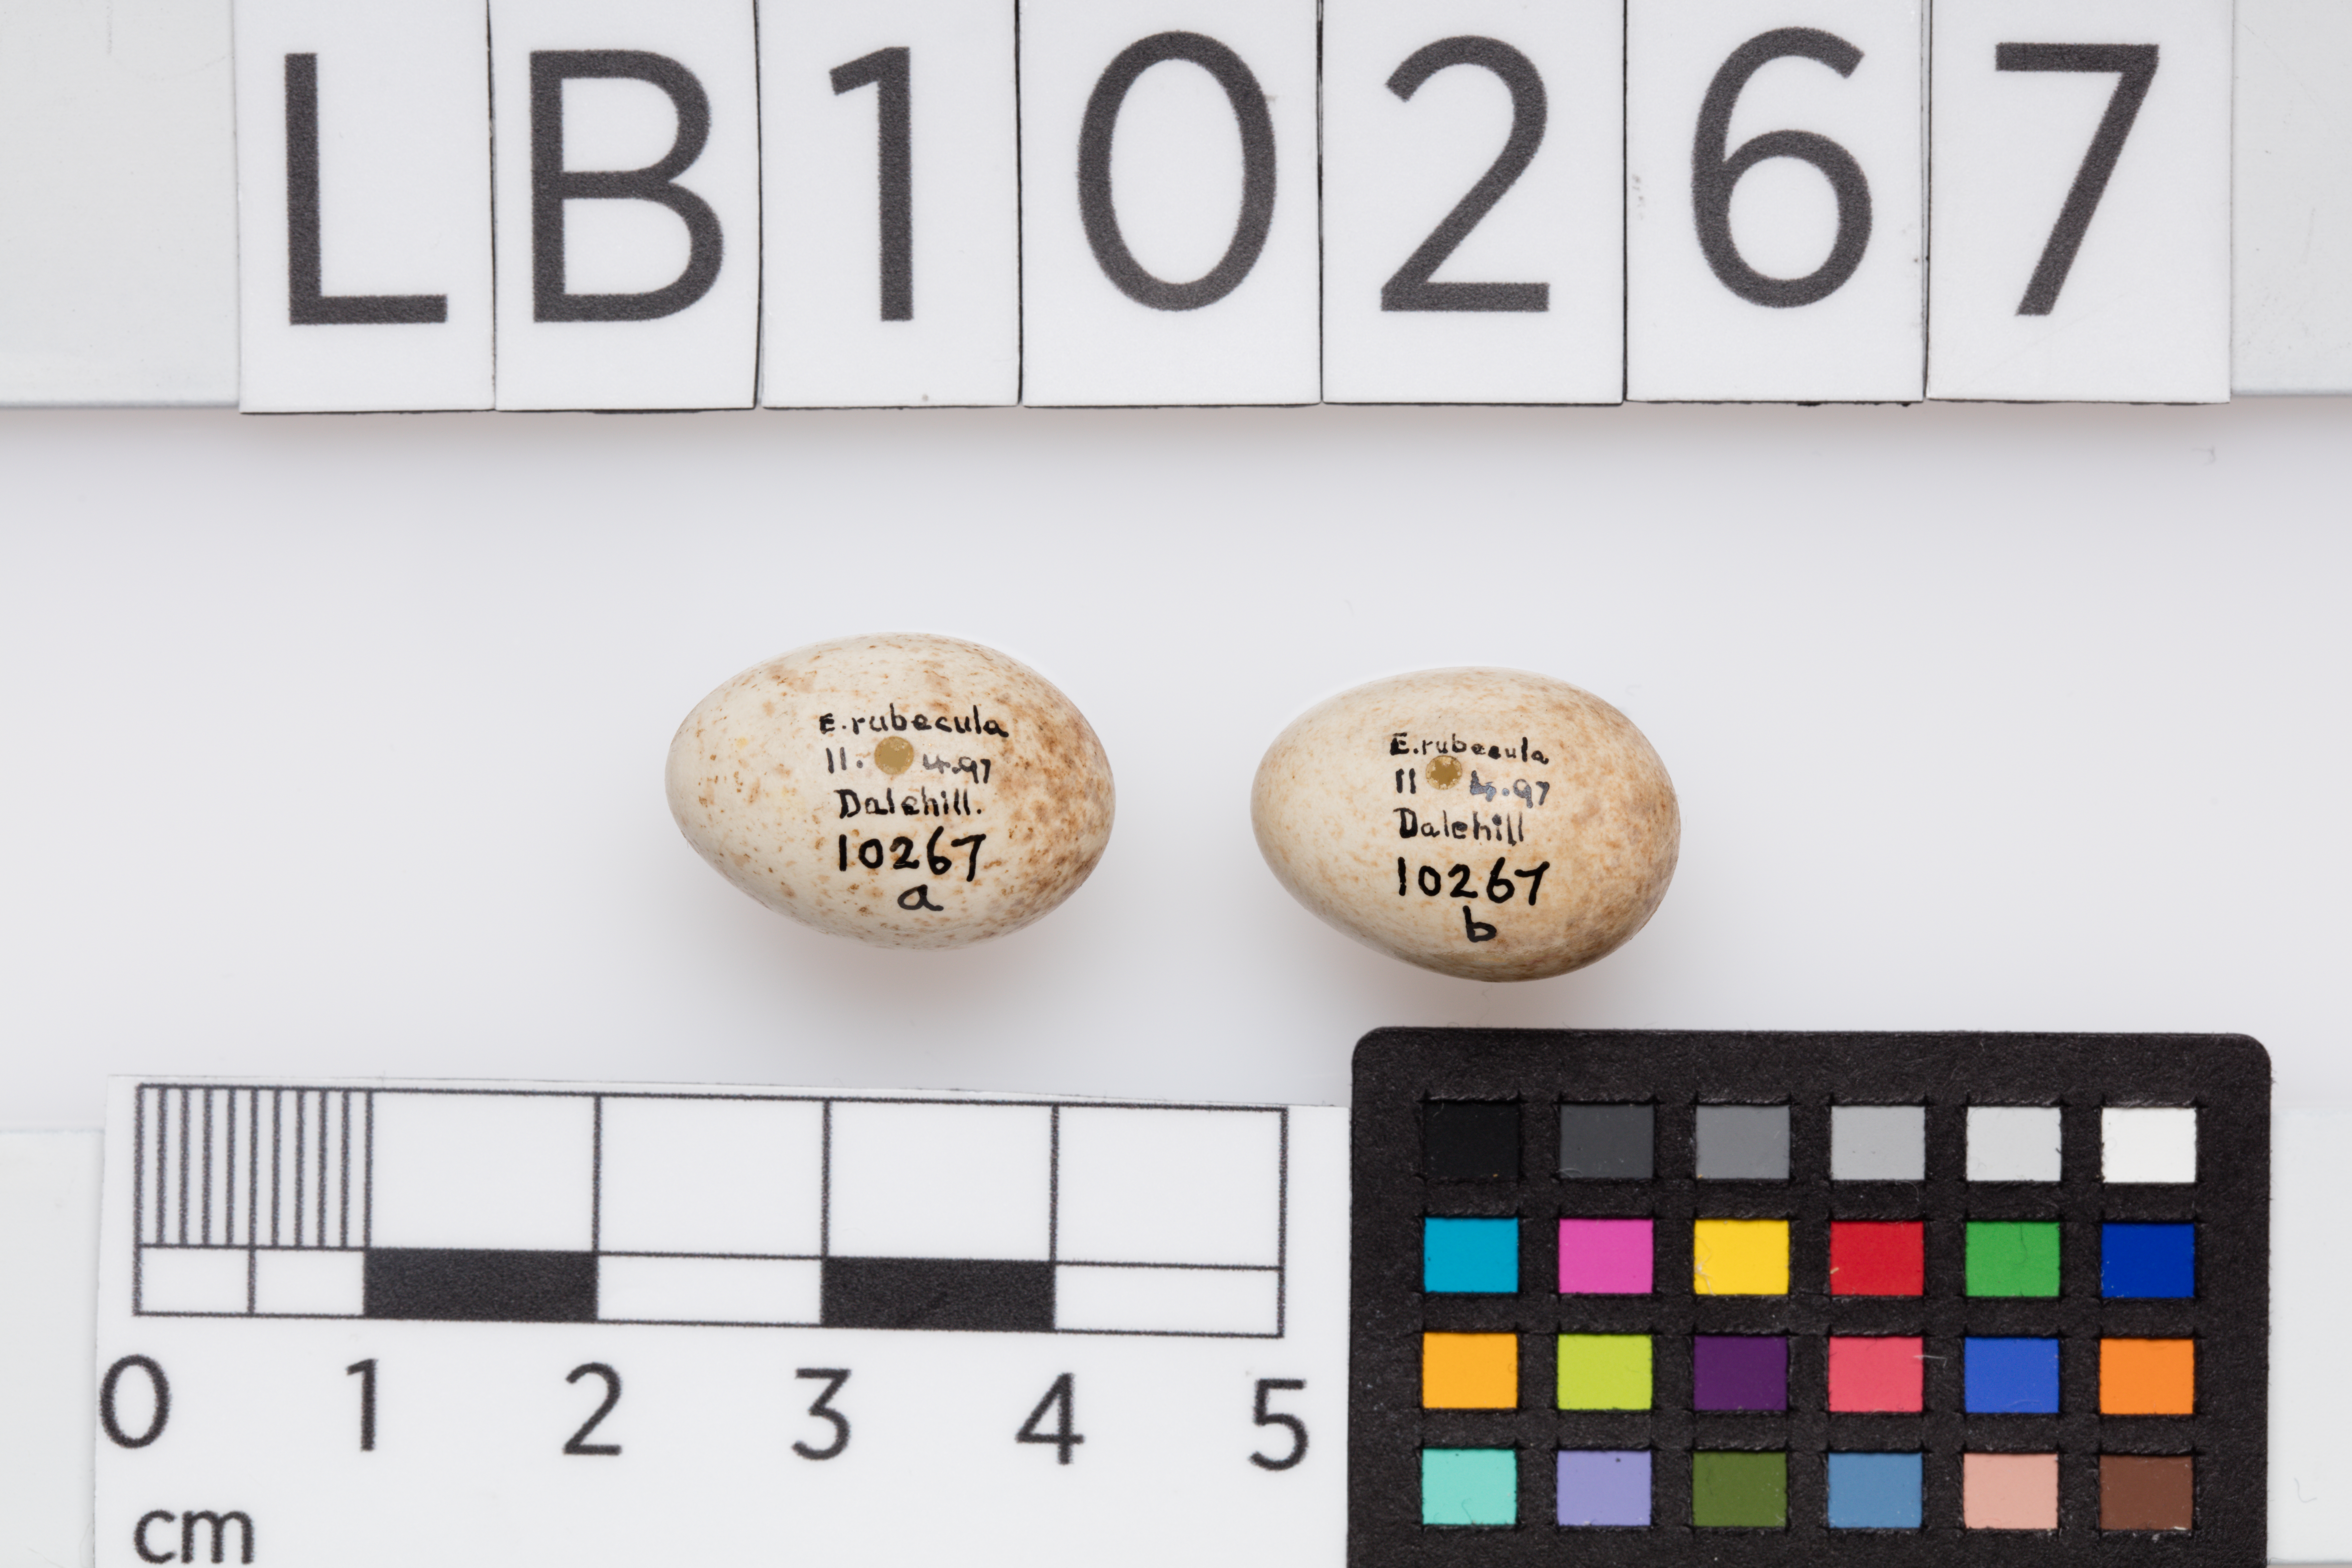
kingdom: Animalia
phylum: Chordata
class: Aves
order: Passeriformes
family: Muscicapidae
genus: Erithacus
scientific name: Erithacus rubecula
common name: European robin
